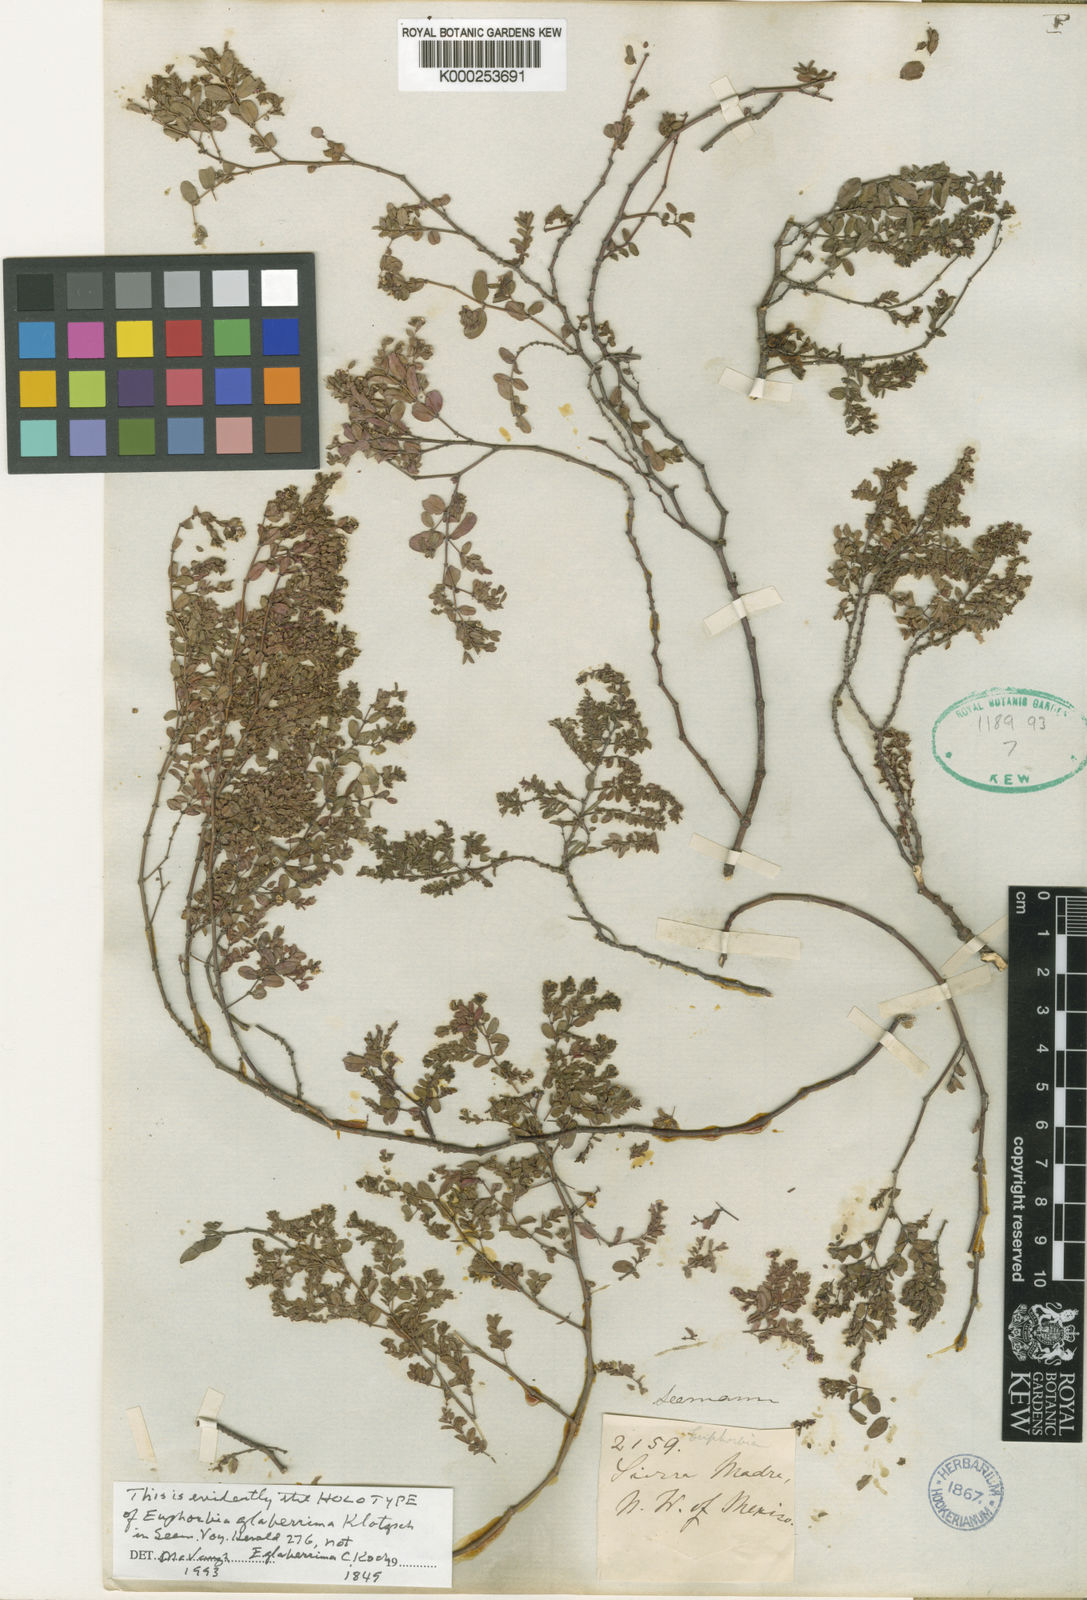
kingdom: Plantae
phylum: Tracheophyta
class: Magnoliopsida
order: Malpighiales
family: Euphorbiaceae
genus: Euphorbia
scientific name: Euphorbia heraldiana
